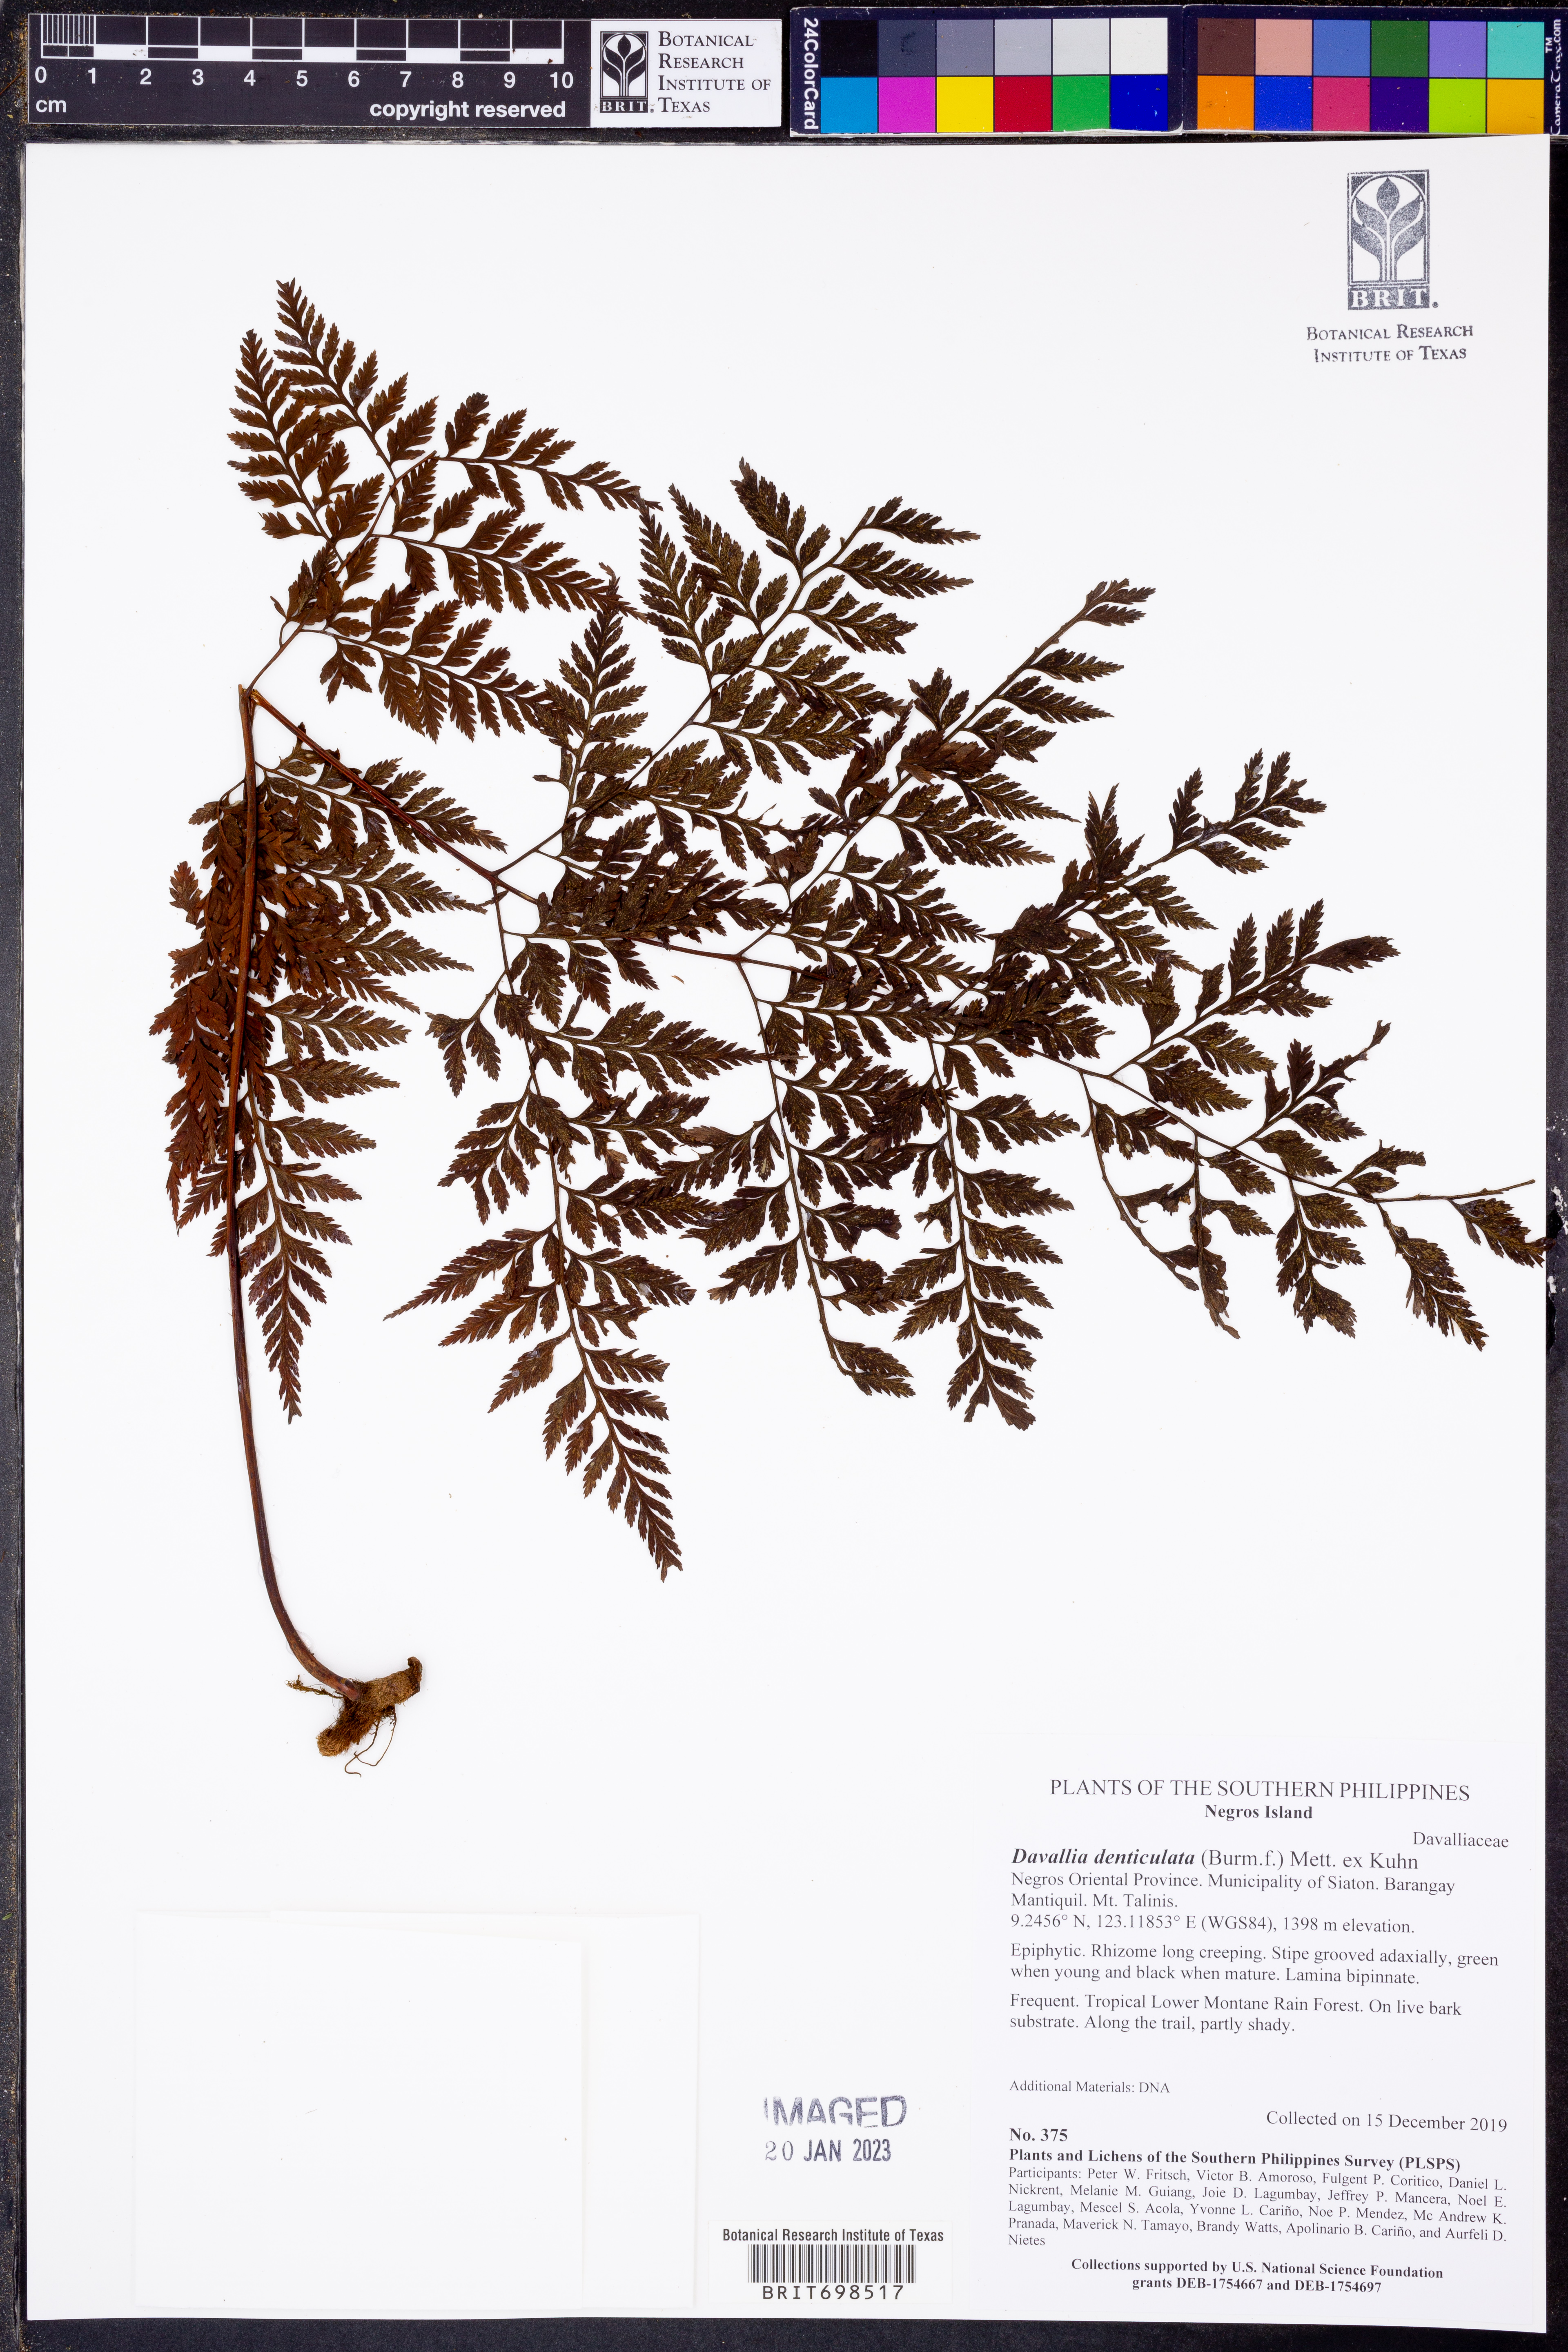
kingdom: Plantae
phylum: Tracheophyta
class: Polypodiopsida
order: Polypodiales
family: Davalliaceae
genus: Davallia
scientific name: Davallia denticulata
